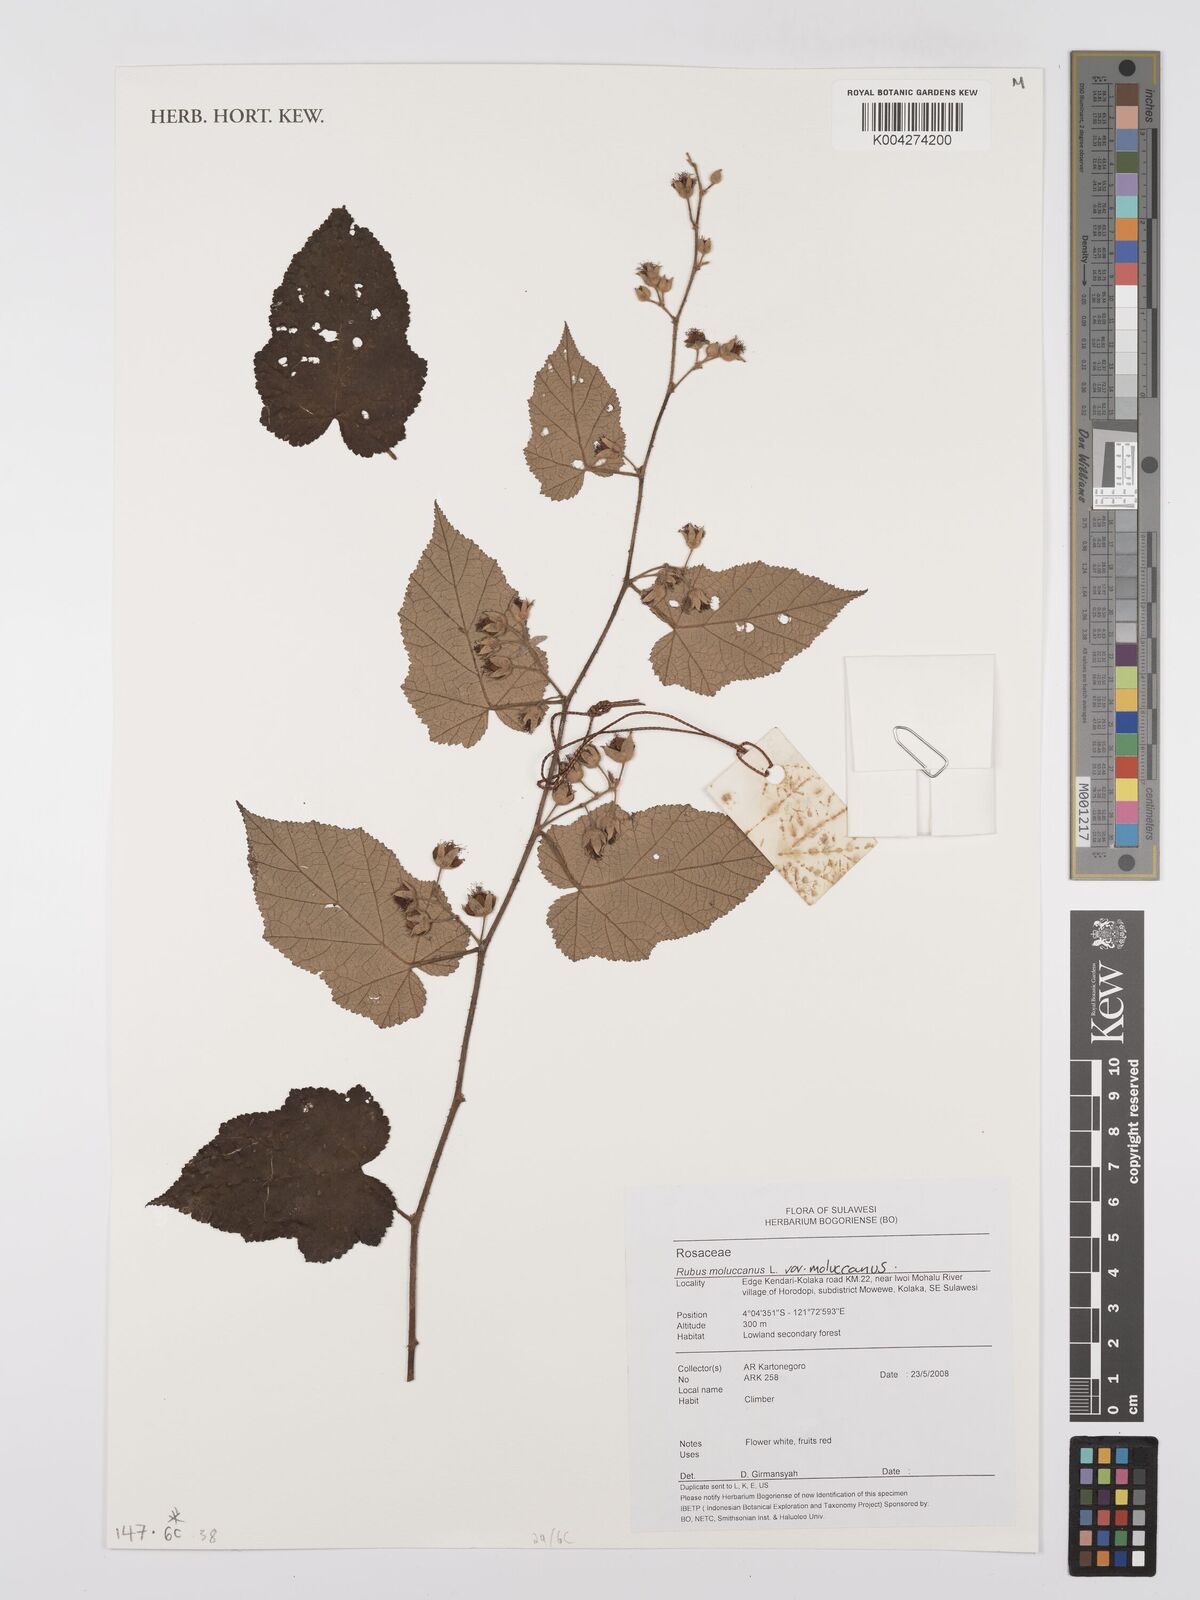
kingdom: Plantae
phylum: Tracheophyta
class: Magnoliopsida
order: Rosales
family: Rosaceae
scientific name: Rosaceae
